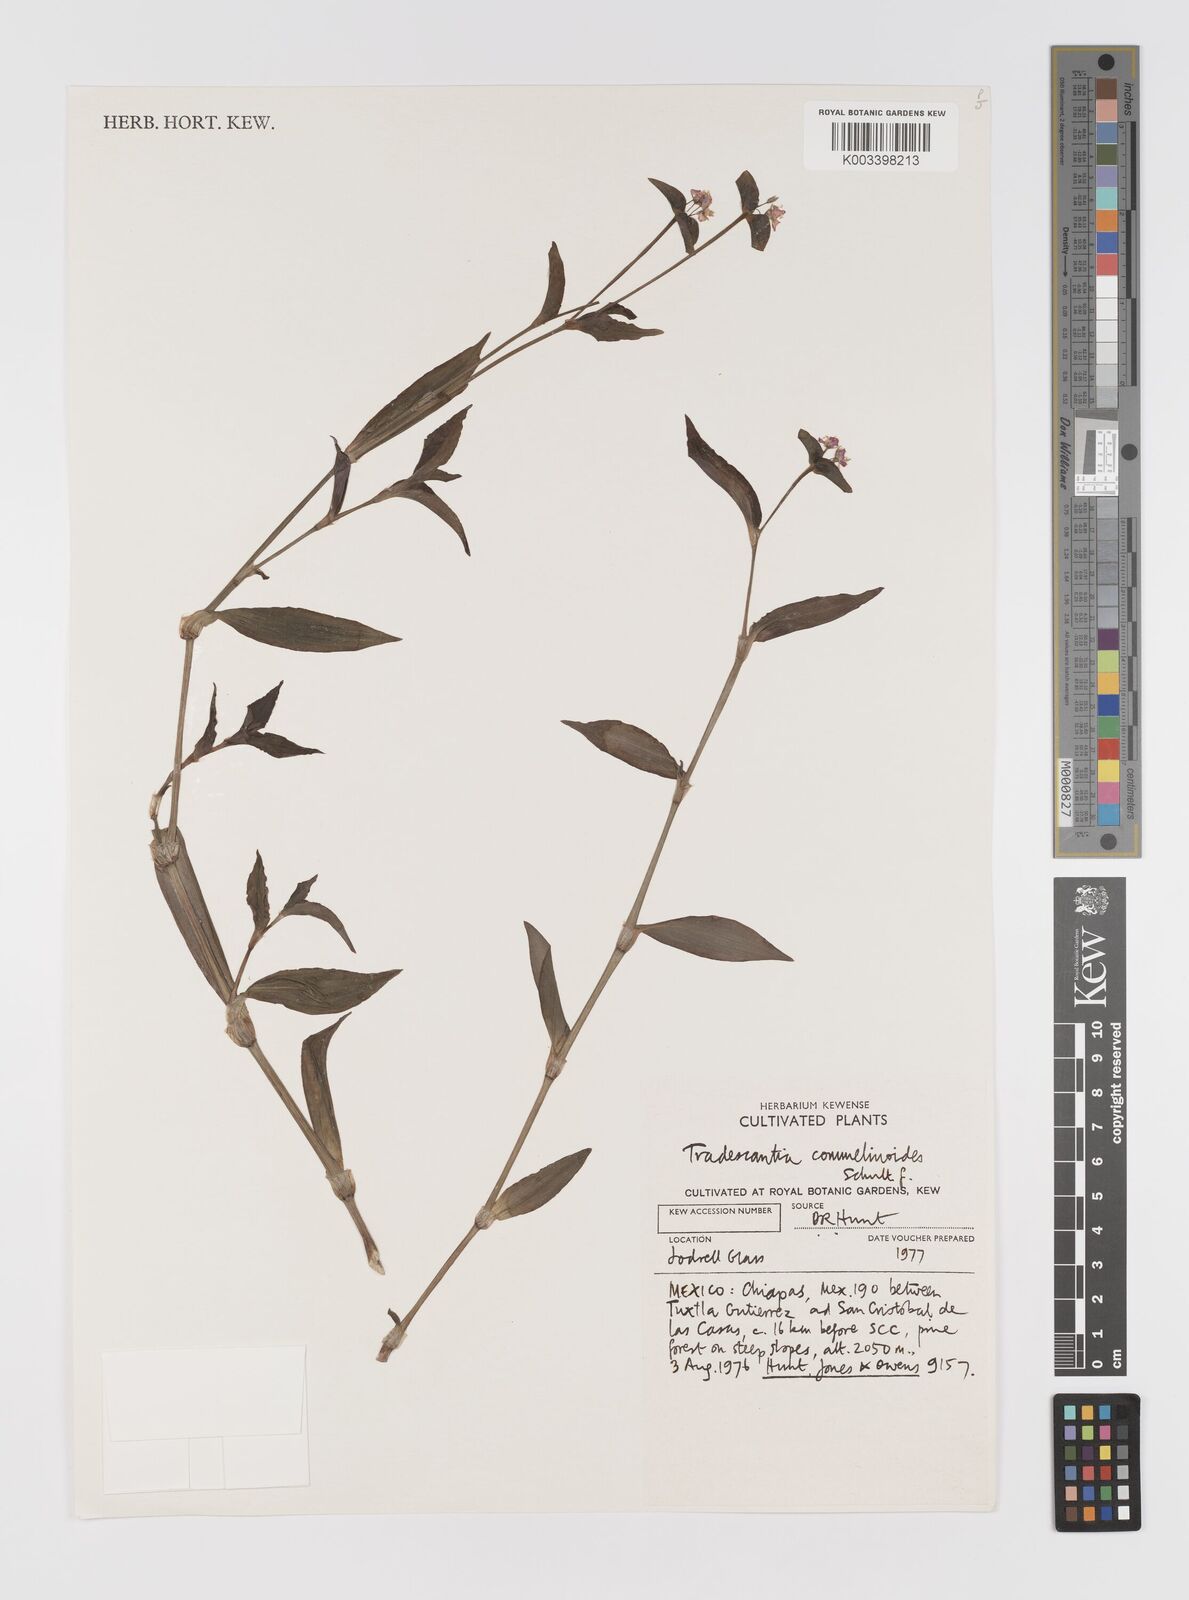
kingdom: Plantae
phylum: Tracheophyta
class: Liliopsida
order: Commelinales
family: Commelinaceae
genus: Tradescantia
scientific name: Tradescantia commelinoides
